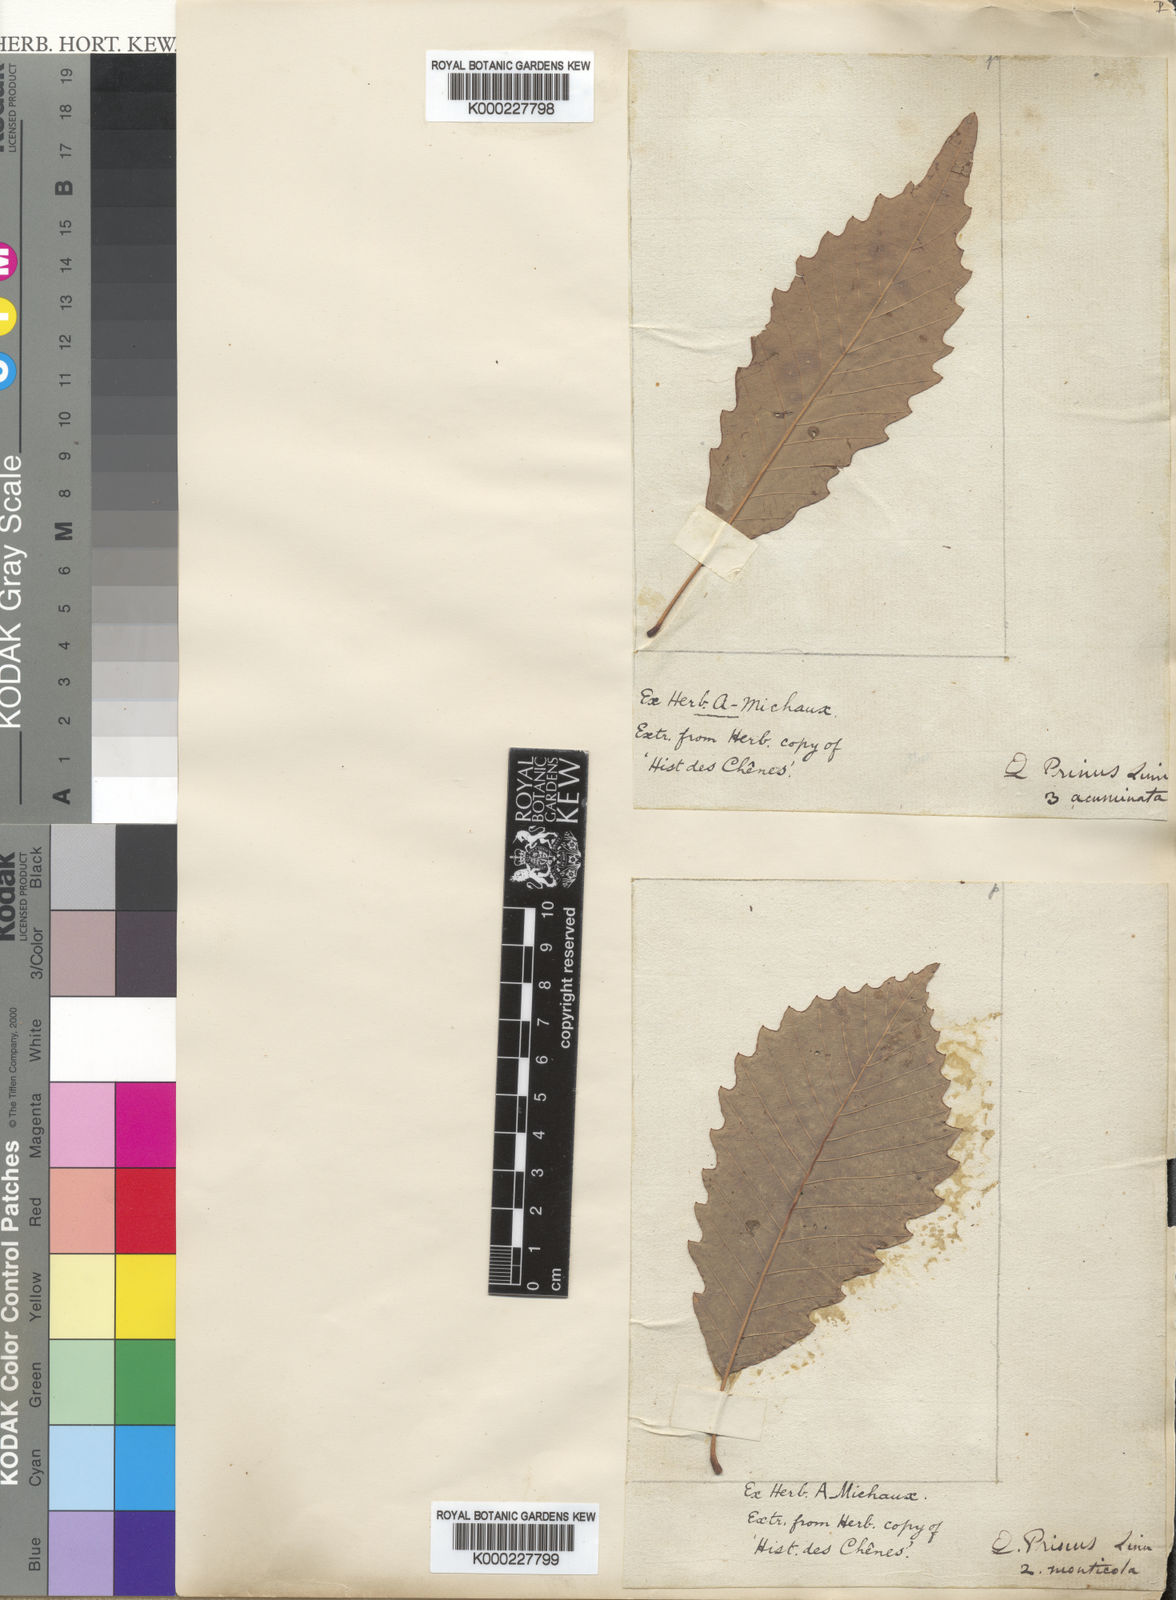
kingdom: Plantae
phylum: Tracheophyta
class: Magnoliopsida
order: Fagales
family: Fagaceae
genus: Quercus
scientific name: Quercus montana
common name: Chestnut oak
